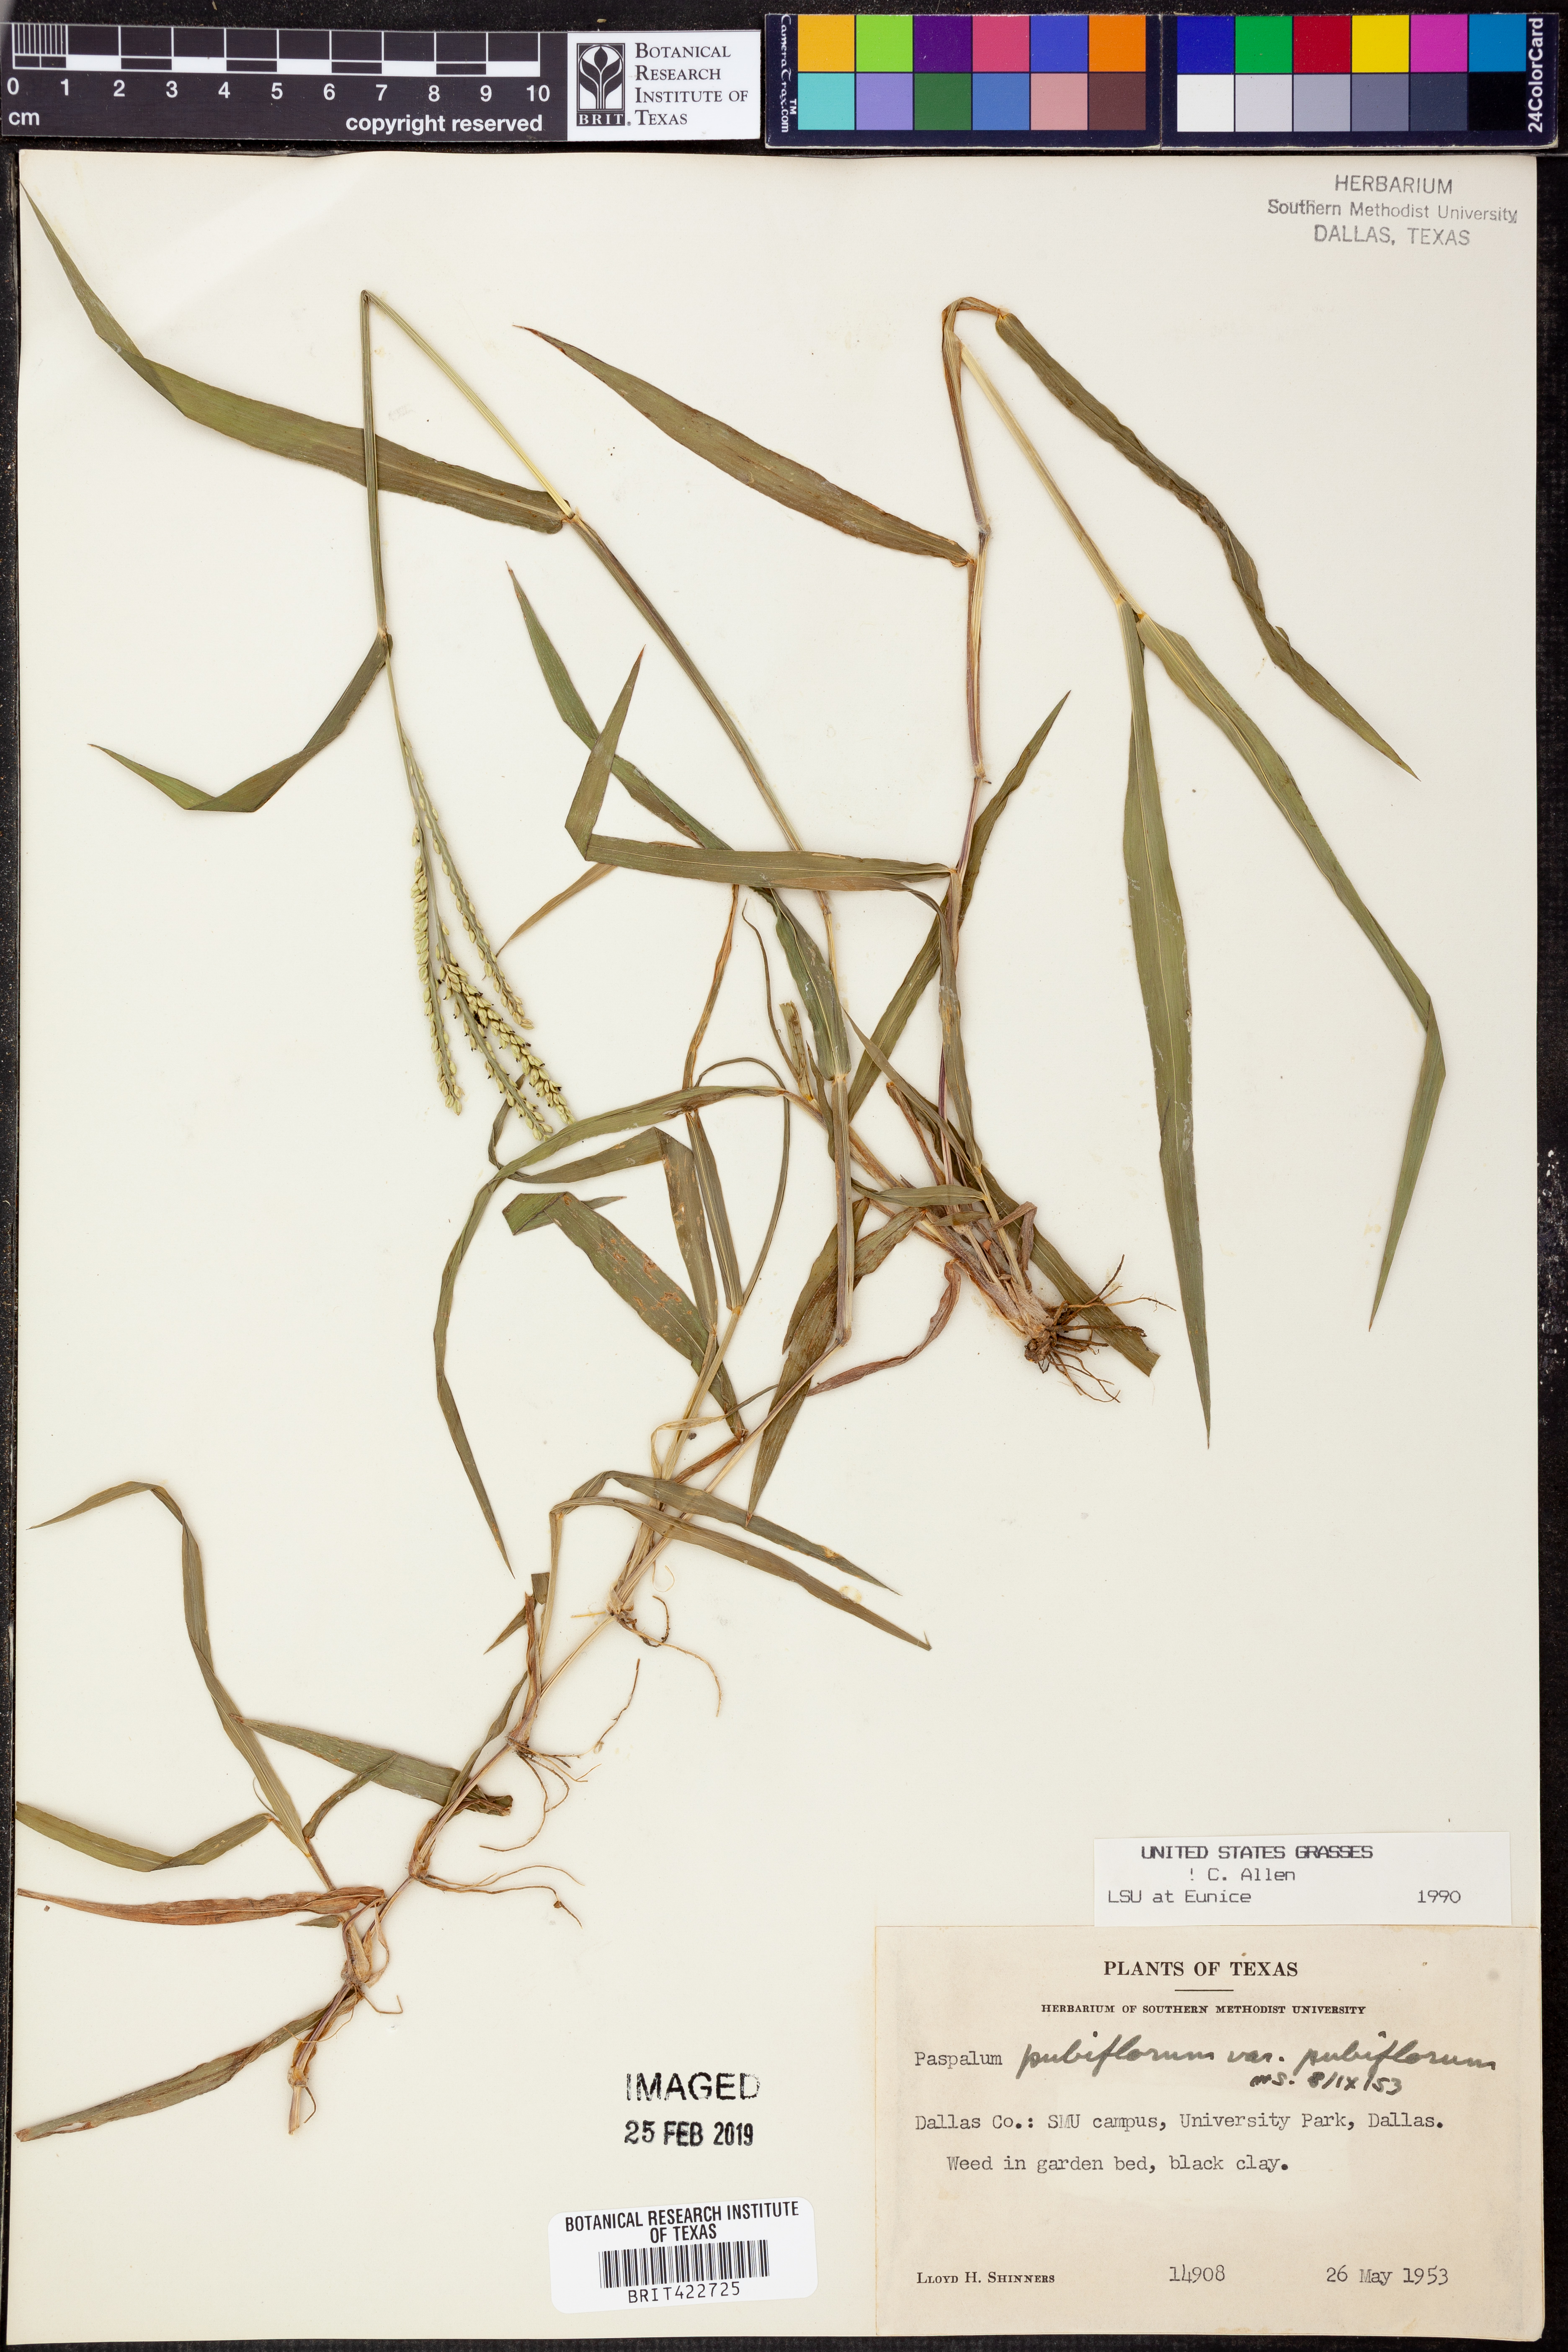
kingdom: Plantae
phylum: Tracheophyta
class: Liliopsida
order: Poales
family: Poaceae
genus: Paspalum
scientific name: Paspalum pubiflorum
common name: Hairy-seed paspalum
